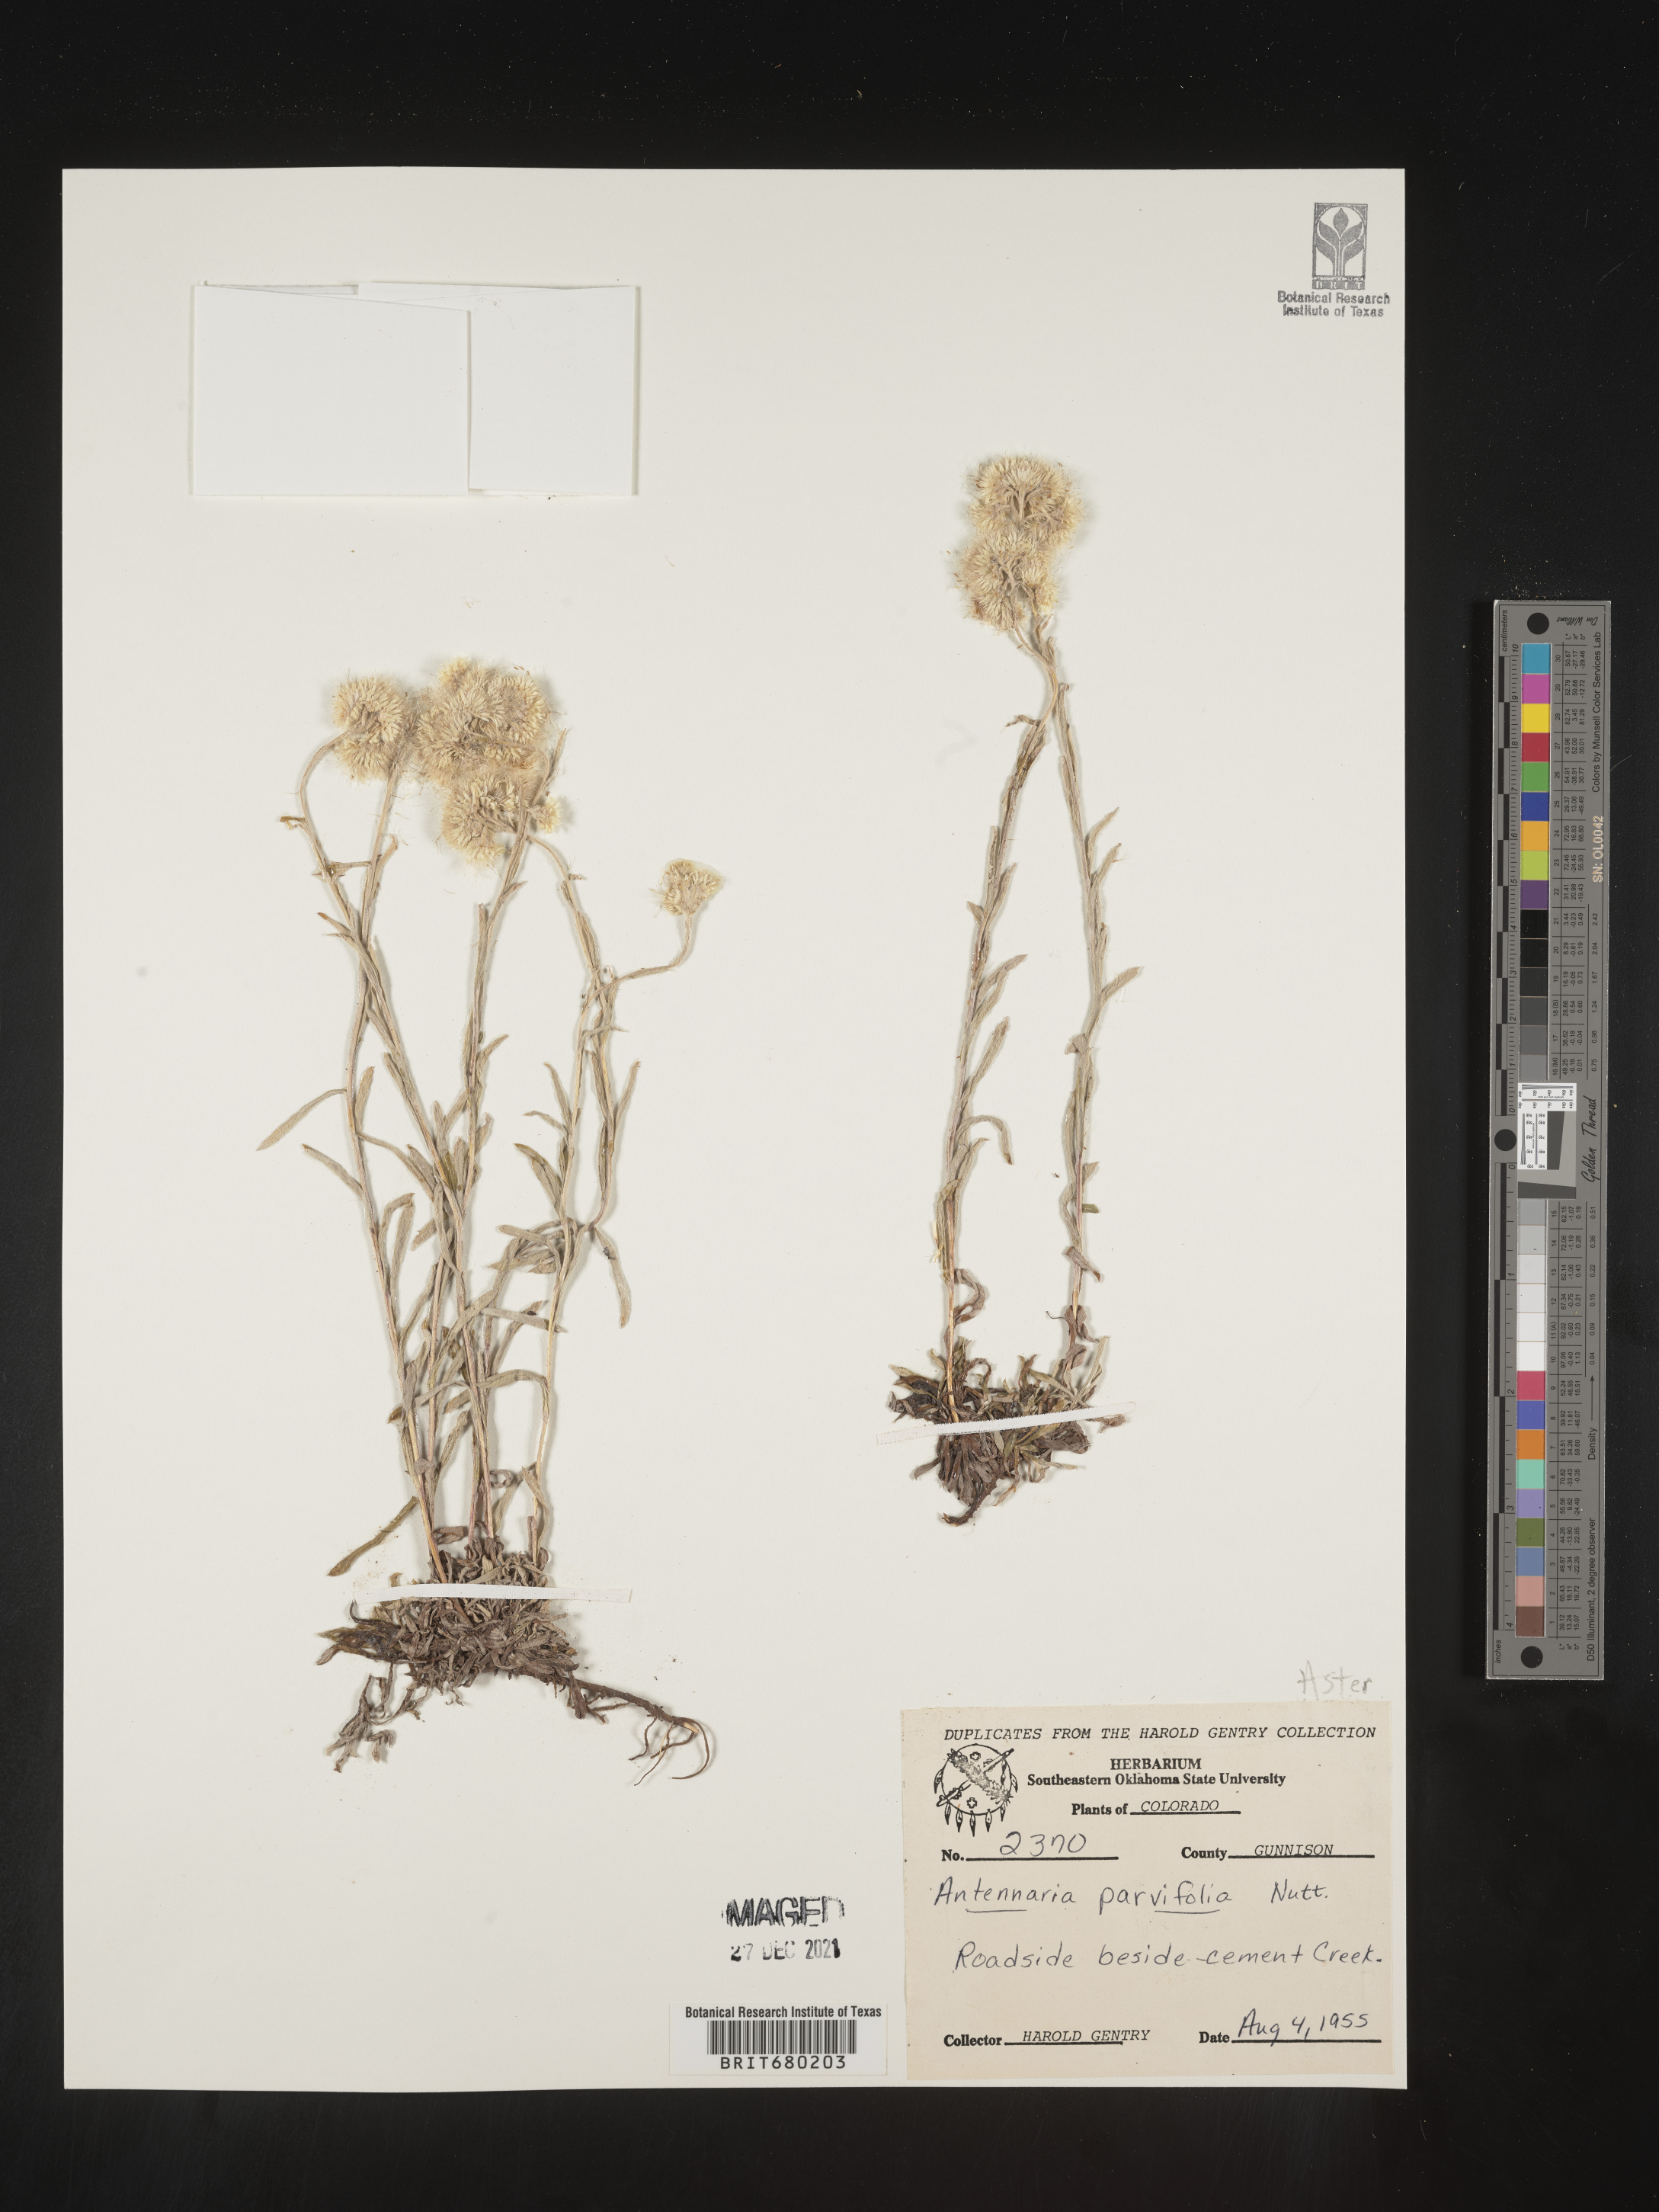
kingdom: Plantae
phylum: Tracheophyta
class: Magnoliopsida
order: Asterales
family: Asteraceae
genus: Antennaria
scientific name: Antennaria plantaginifolia
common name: Plantain-leaved pussytoes
